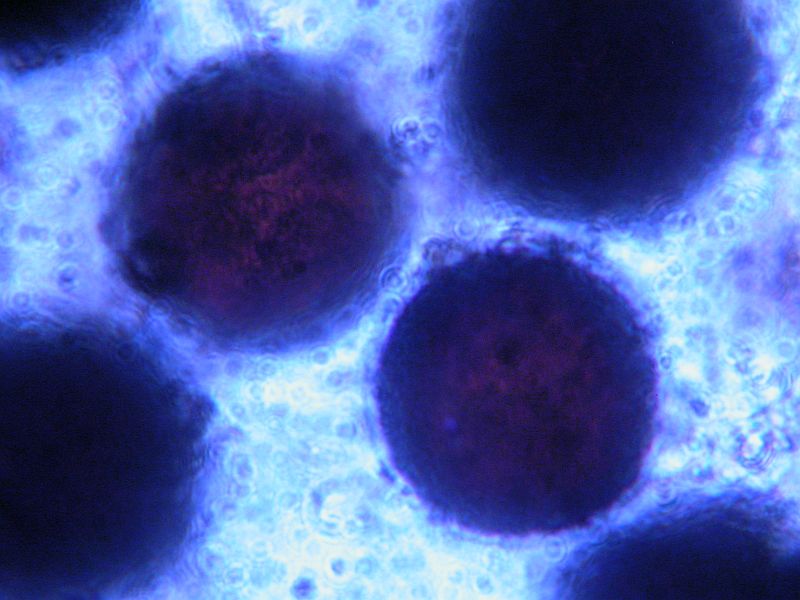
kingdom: Fungi
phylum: Ascomycota
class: Eurotiomycetes
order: Eurotiales
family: Elaphomycetaceae
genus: Elaphomyces
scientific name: Elaphomyces granulatus
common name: grynet hjortetrøffel
